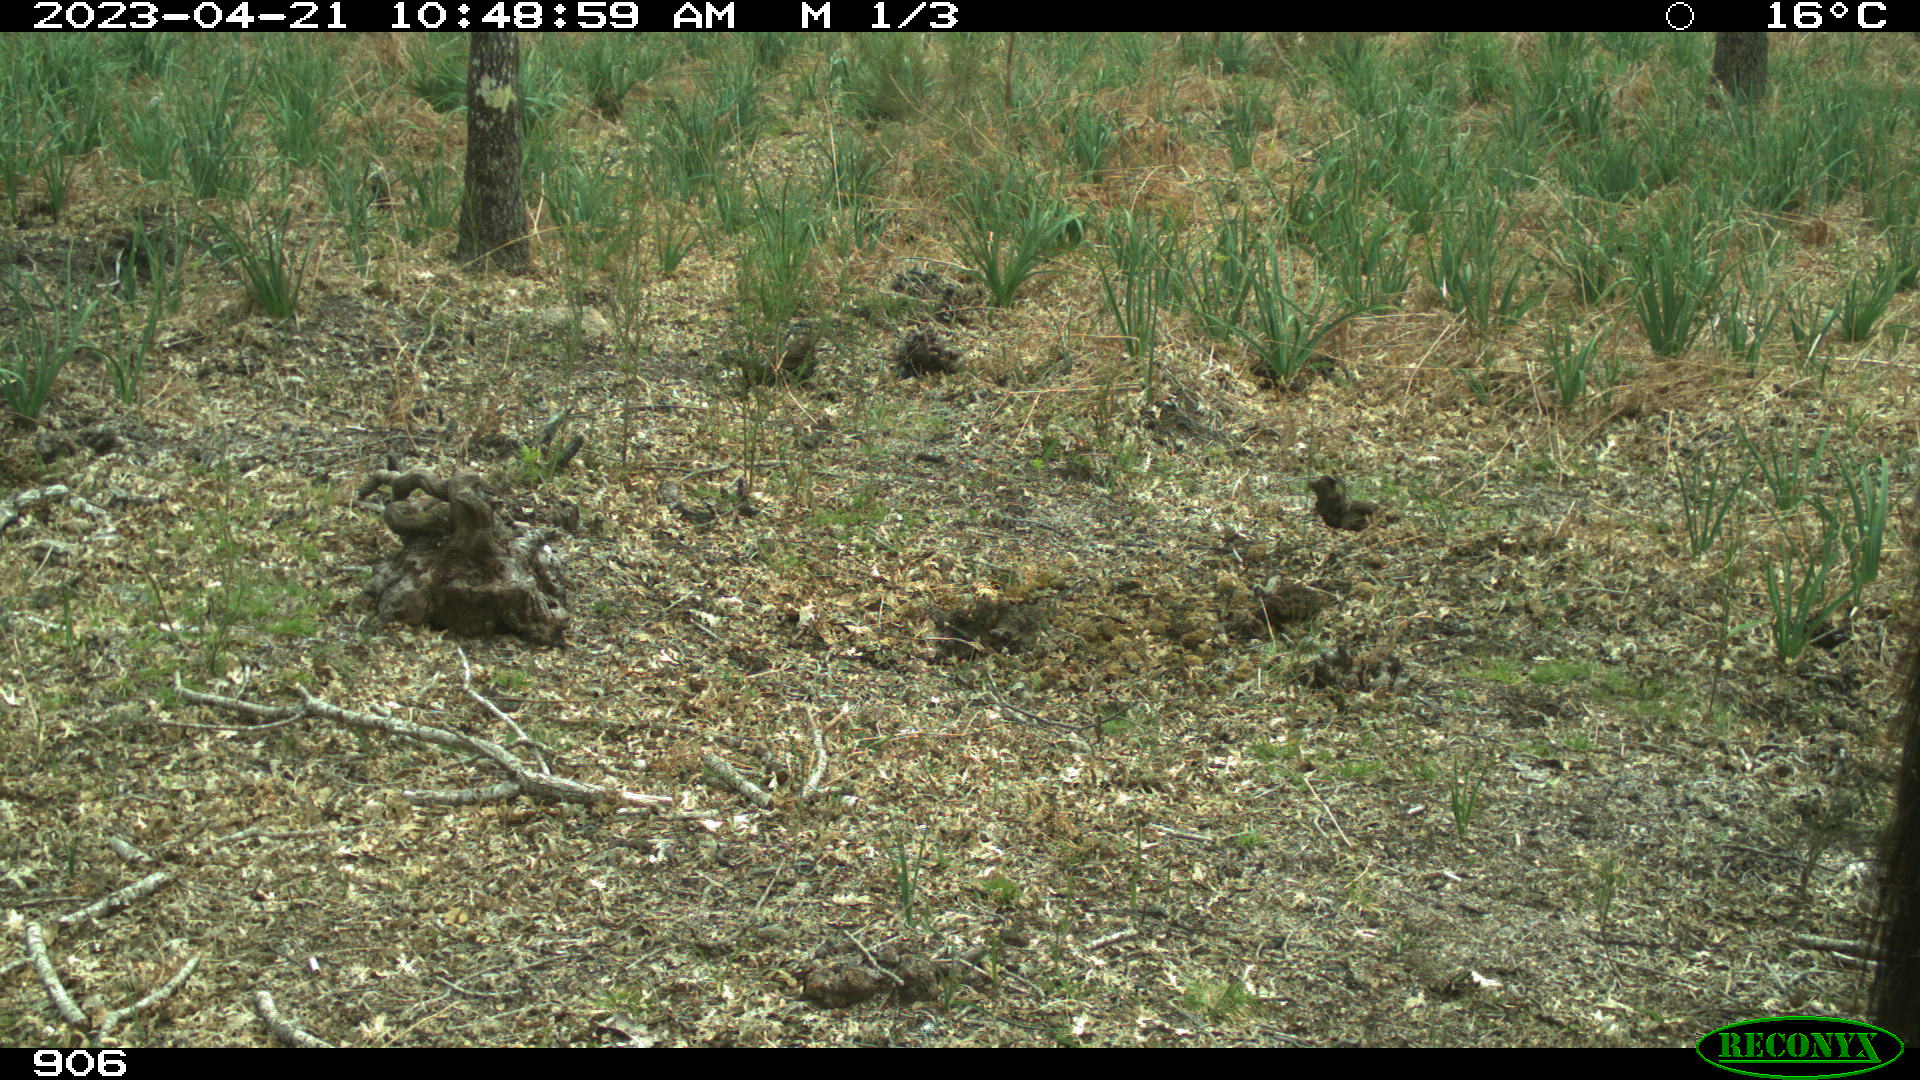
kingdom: Animalia
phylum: Chordata
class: Mammalia
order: Perissodactyla
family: Equidae
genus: Equus
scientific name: Equus caballus
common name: Horse
